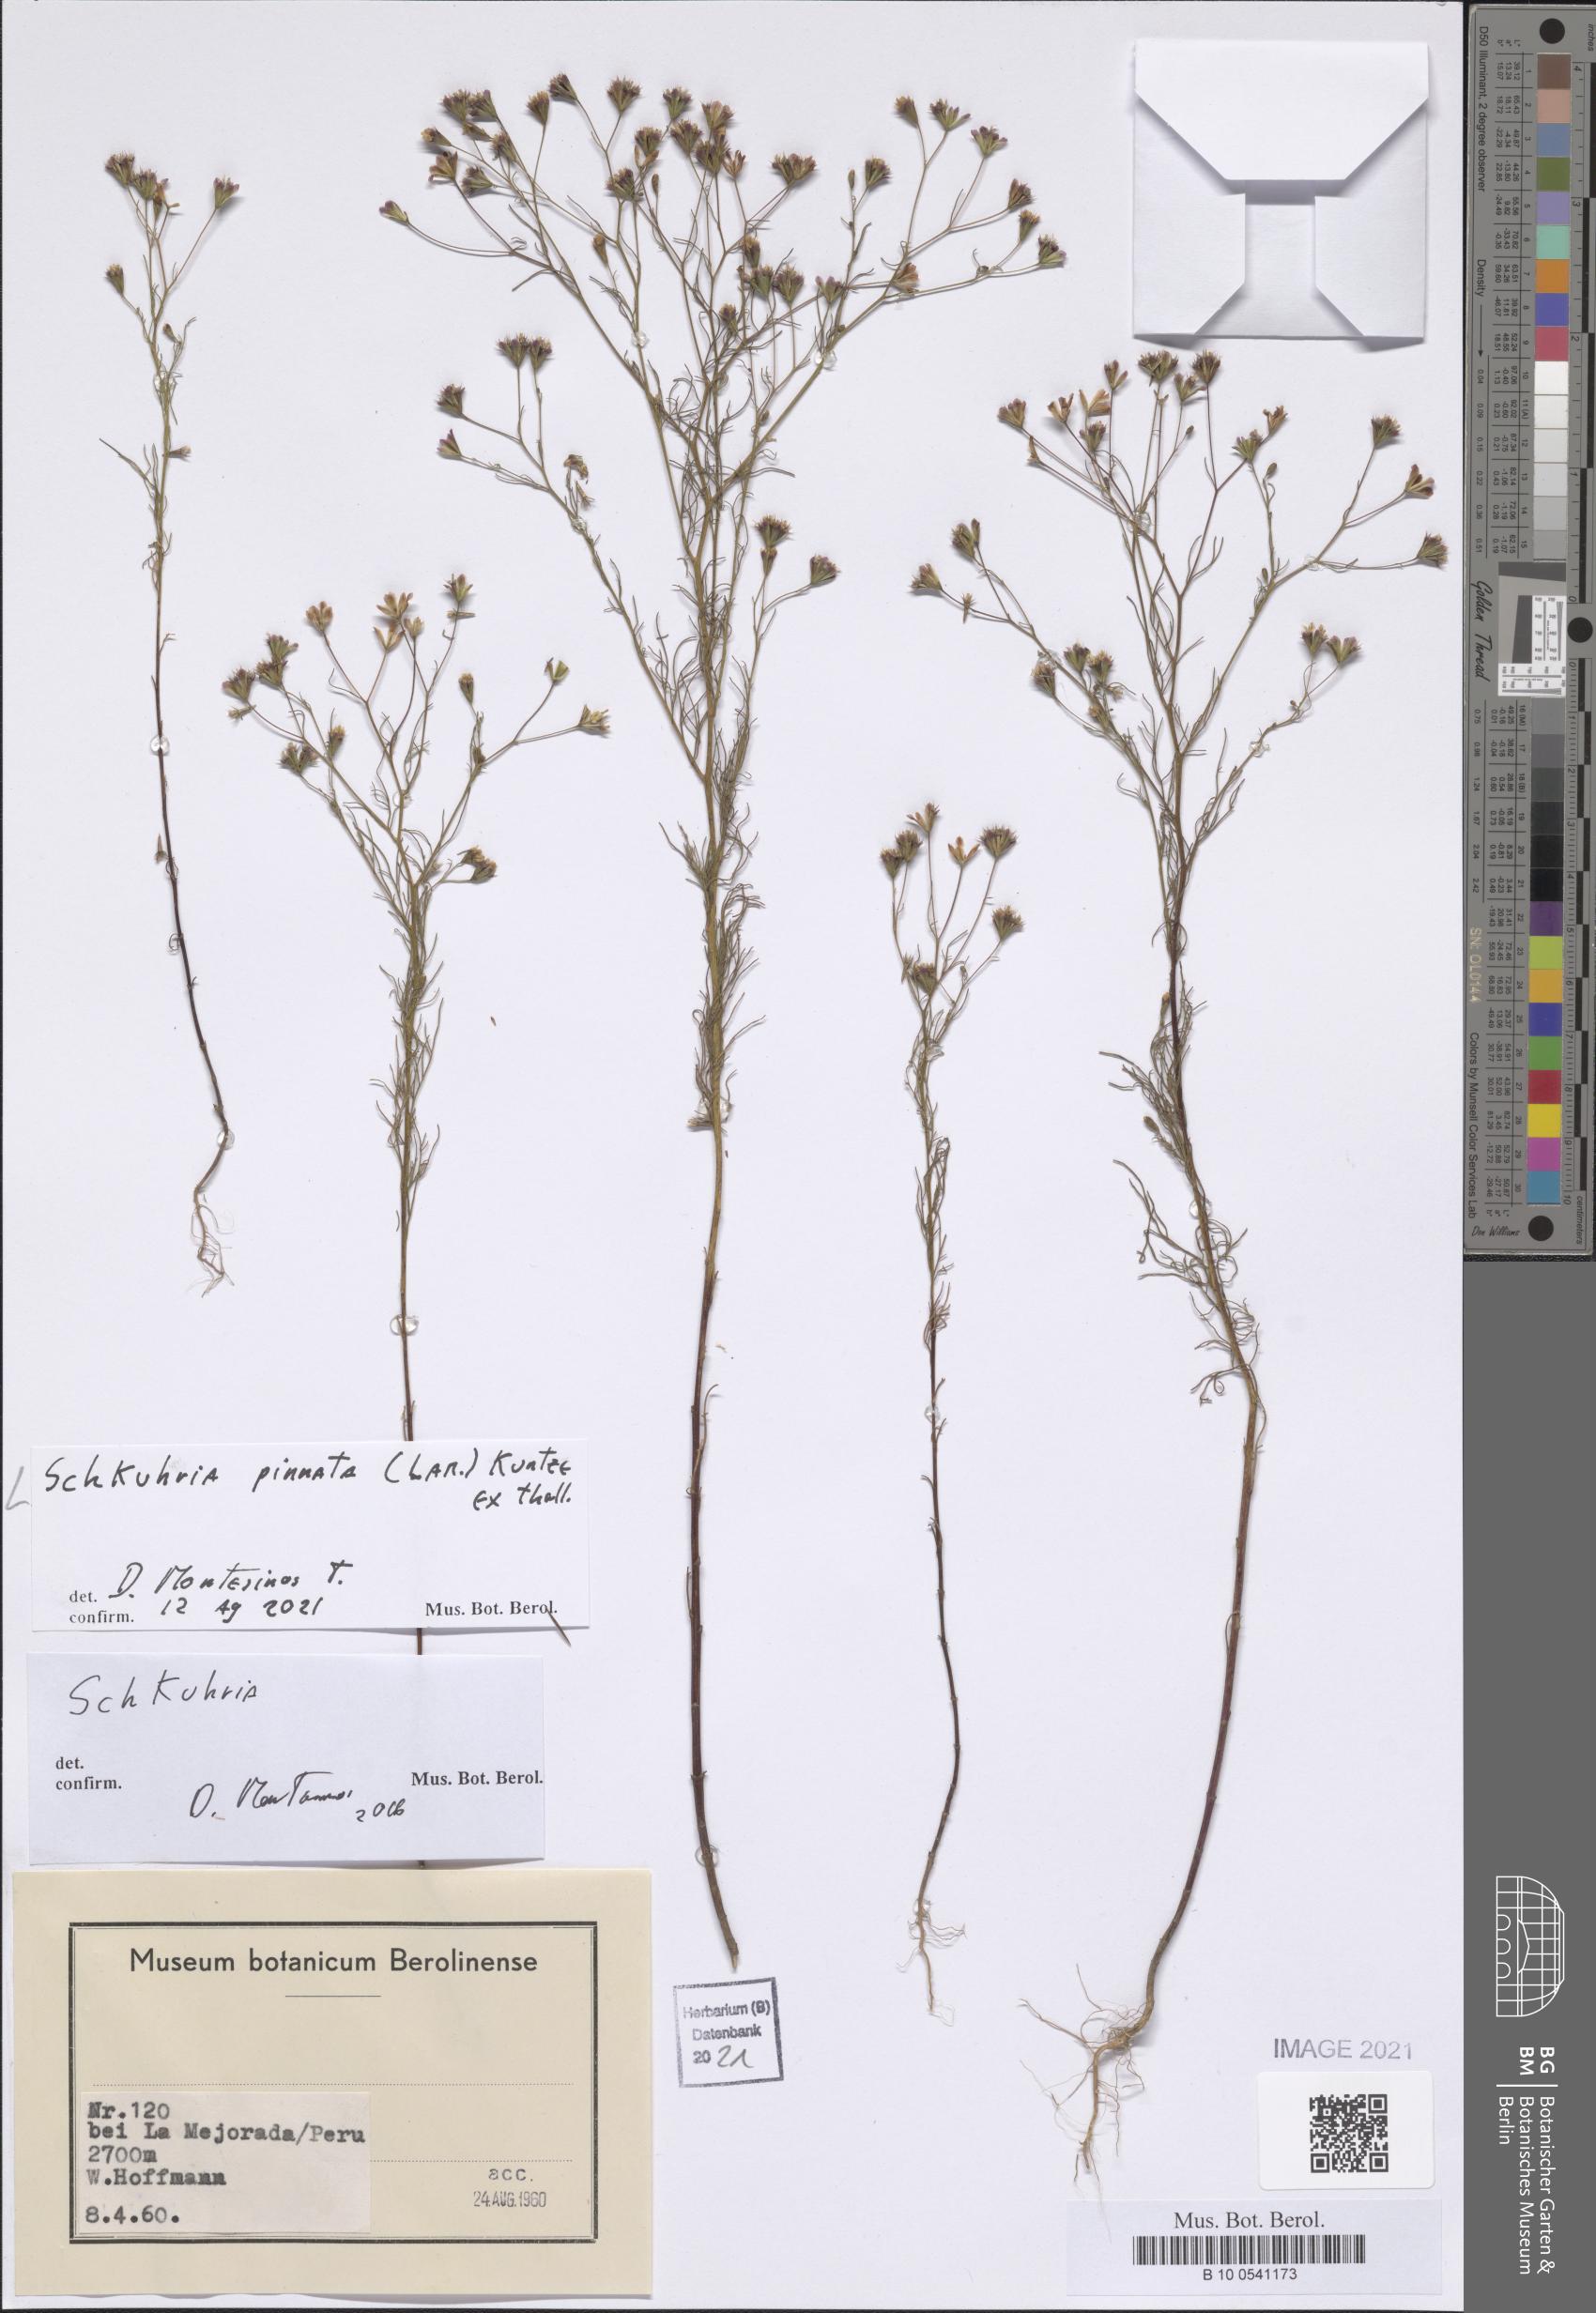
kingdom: Plantae
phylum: Tracheophyta
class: Magnoliopsida
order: Asterales
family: Asteraceae
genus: Schkuhria
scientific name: Schkuhria pinnata
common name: Dwarf marigold
